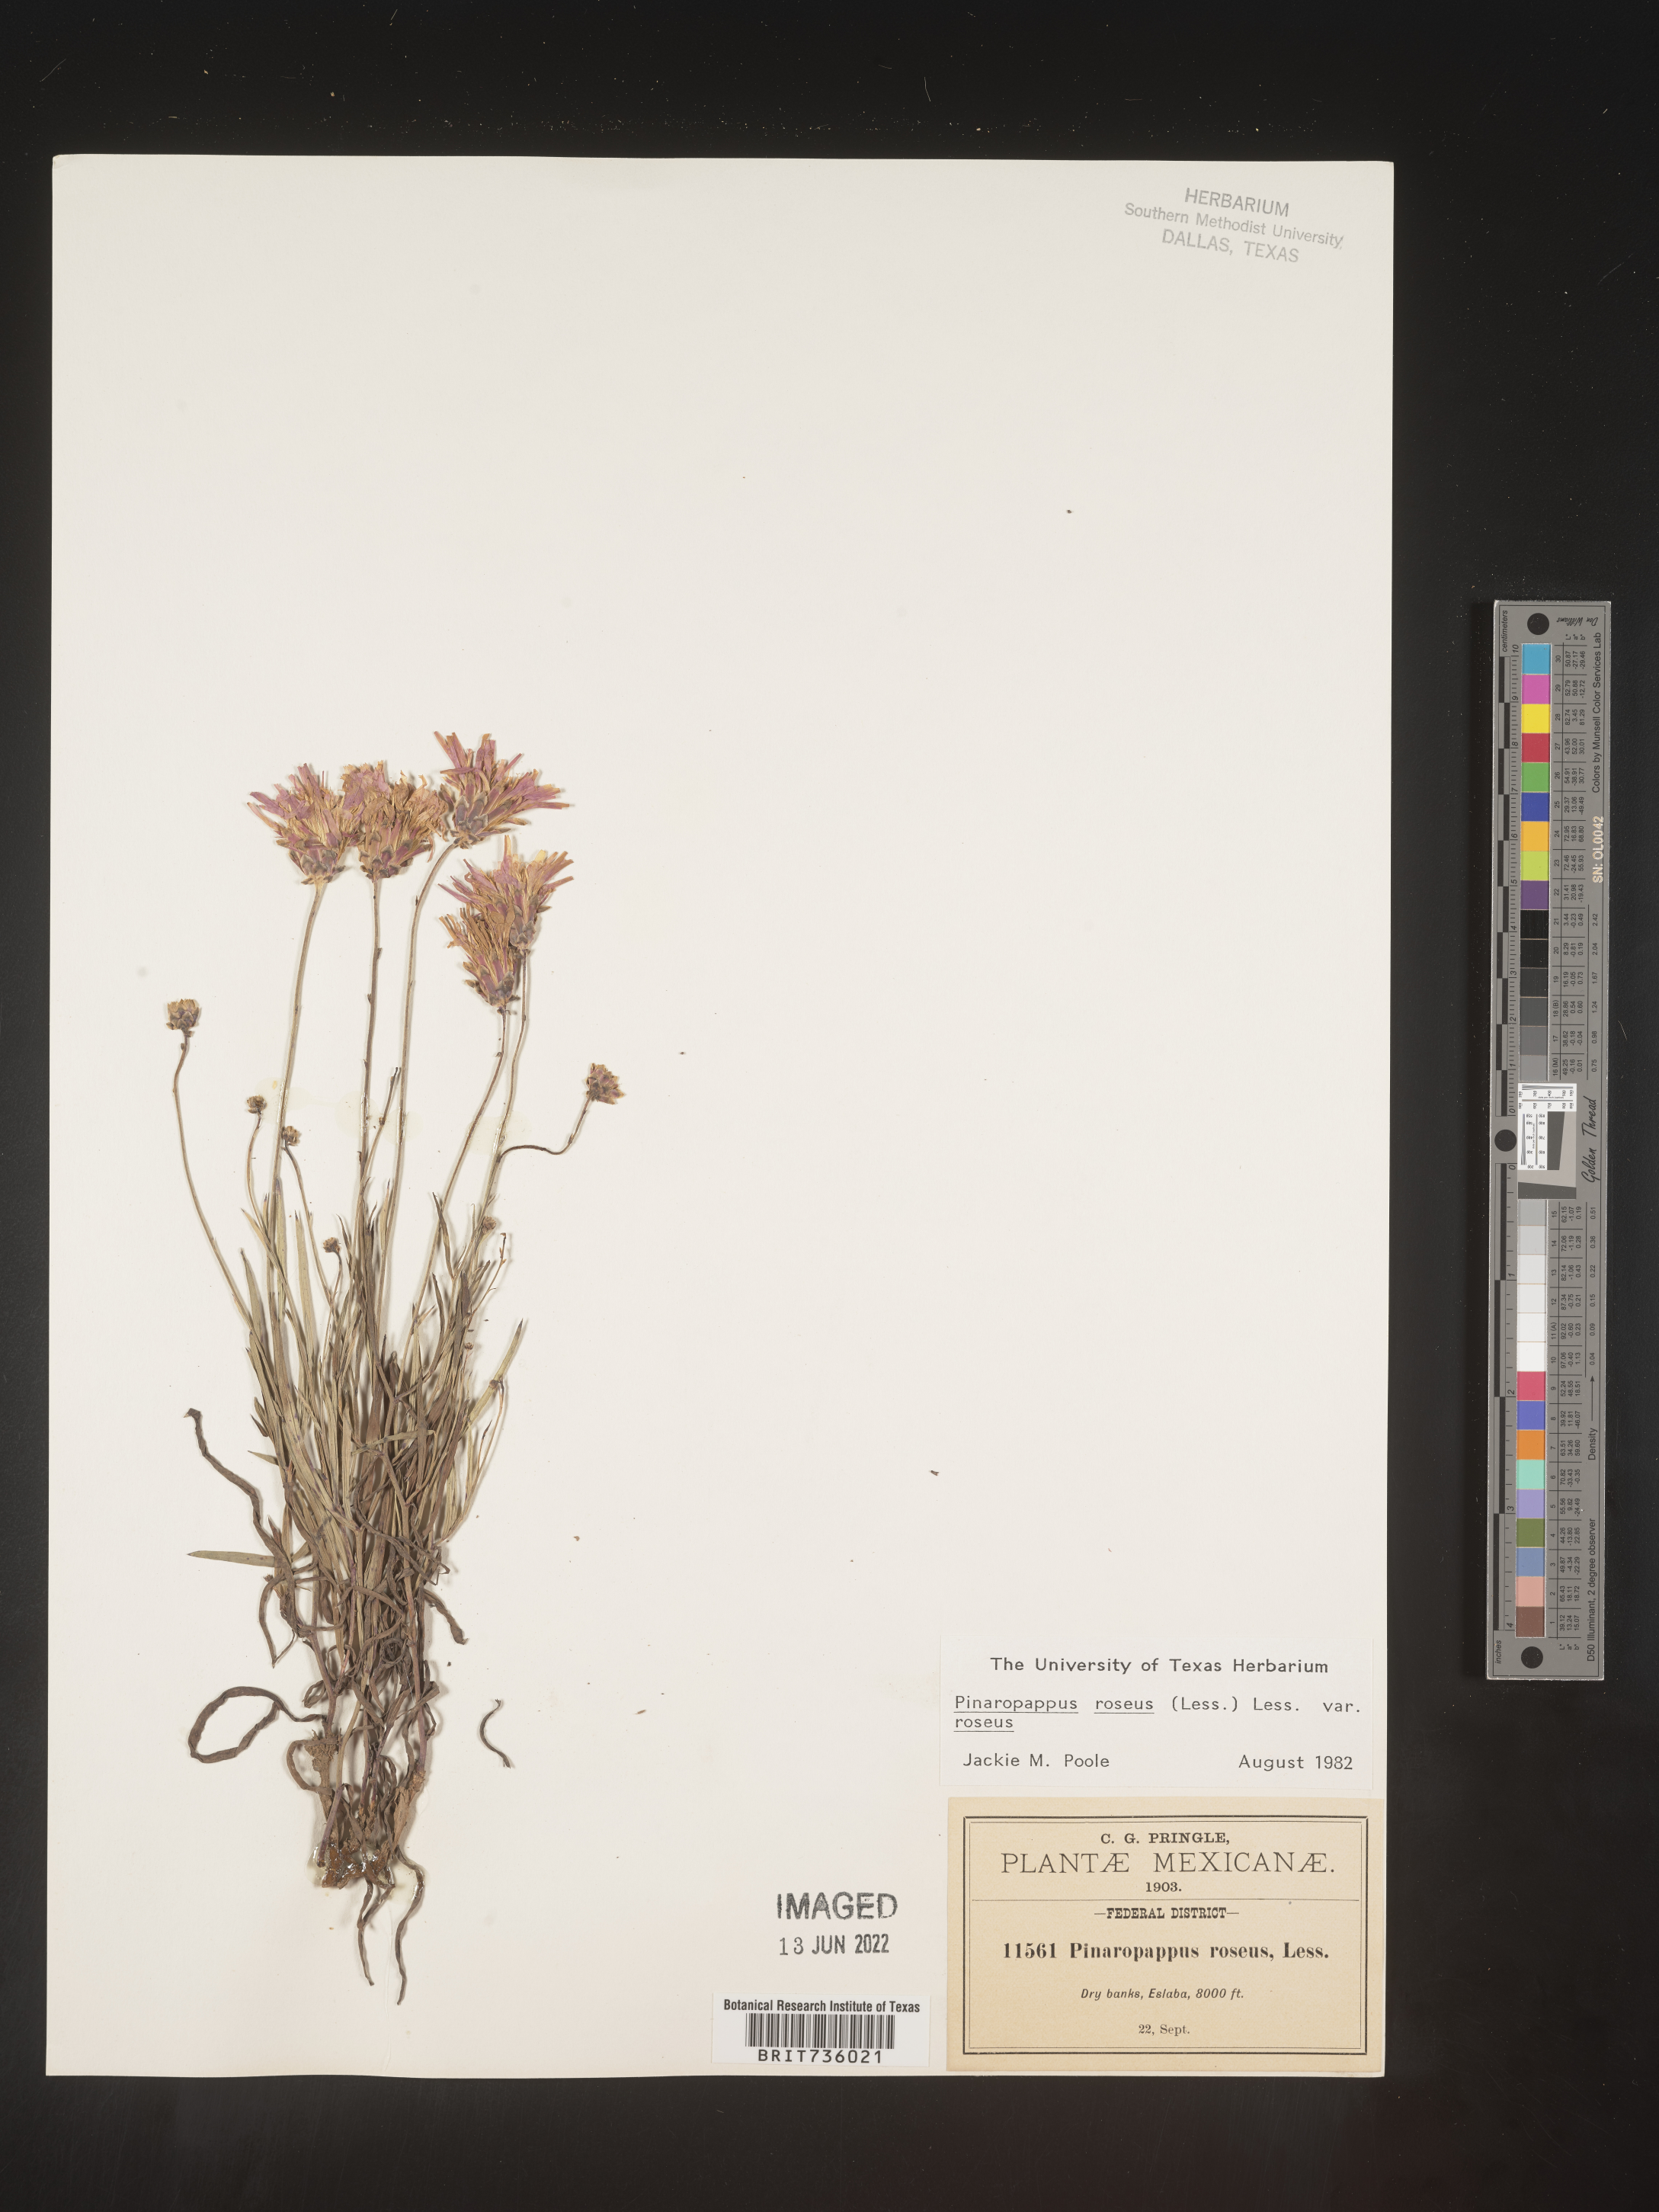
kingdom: Plantae
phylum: Tracheophyta
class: Magnoliopsida
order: Asterales
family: Asteraceae
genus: Pinaropappus
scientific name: Pinaropappus
